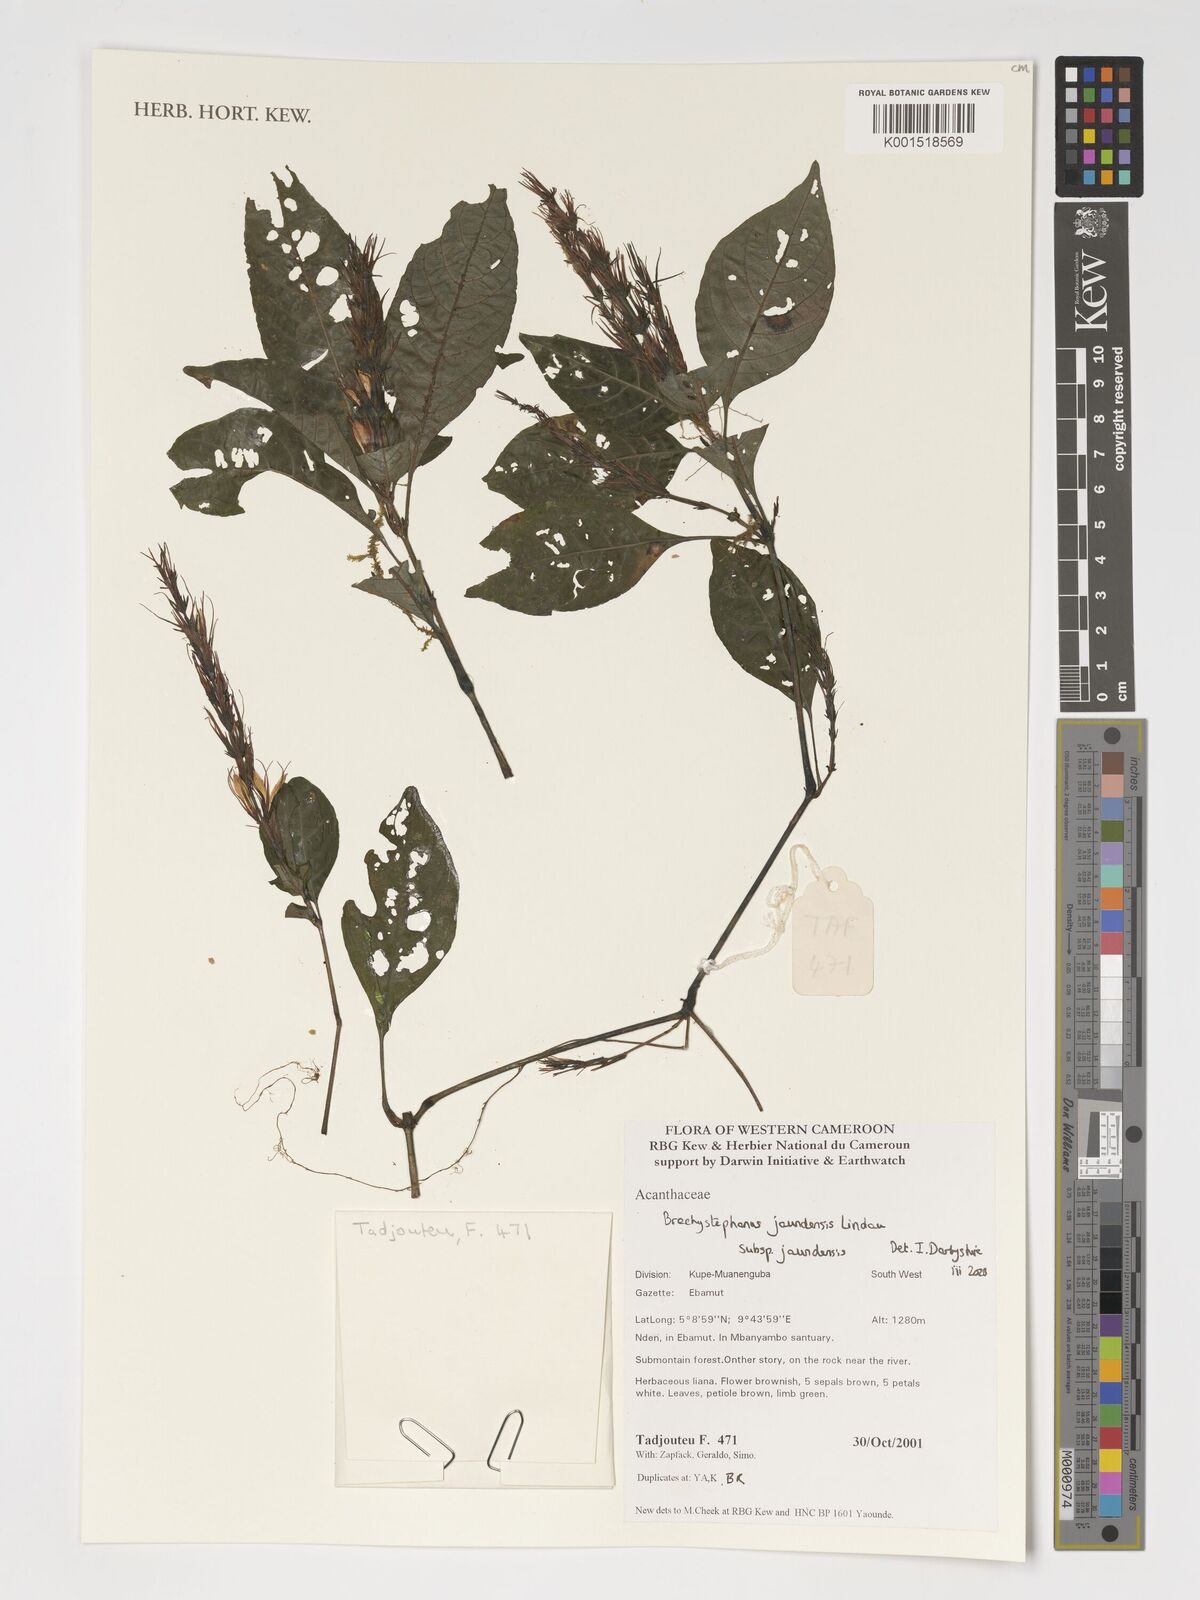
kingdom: Plantae
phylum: Tracheophyta
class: Magnoliopsida
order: Lamiales
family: Acanthaceae
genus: Brachystephanus
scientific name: Brachystephanus jaundensis
